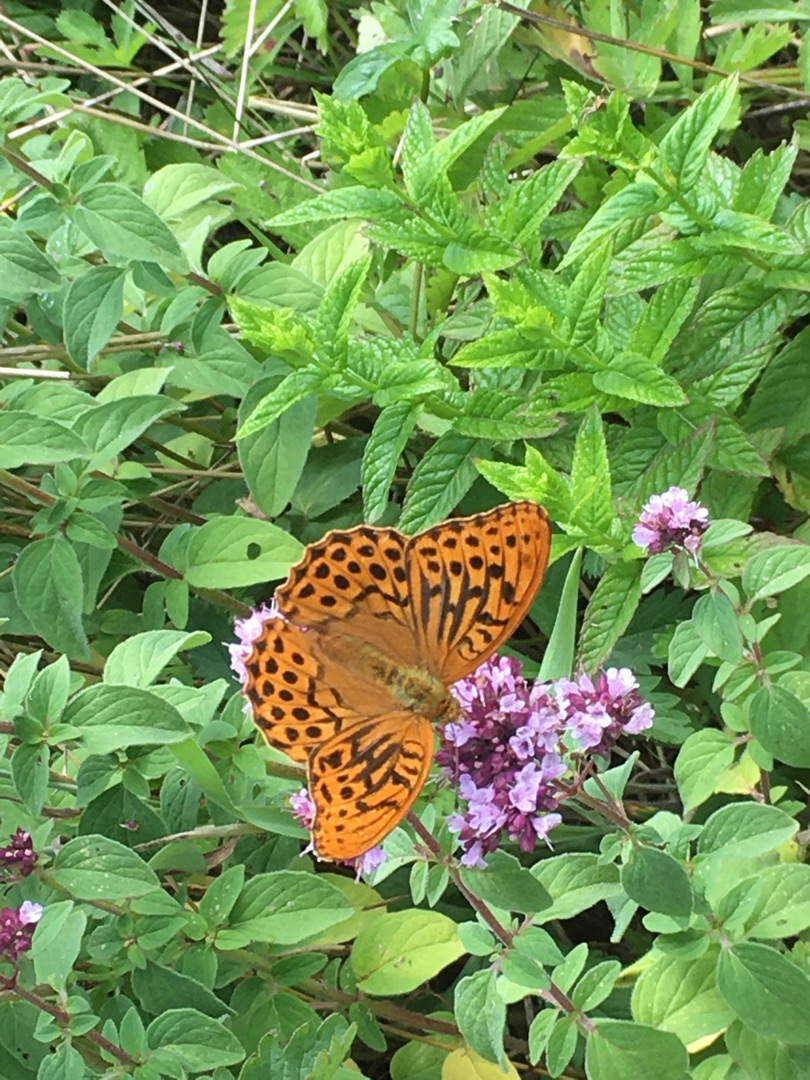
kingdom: Animalia
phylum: Arthropoda
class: Insecta
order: Lepidoptera
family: Nymphalidae
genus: Argynnis
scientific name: Argynnis paphia
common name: Kejserkåbe
